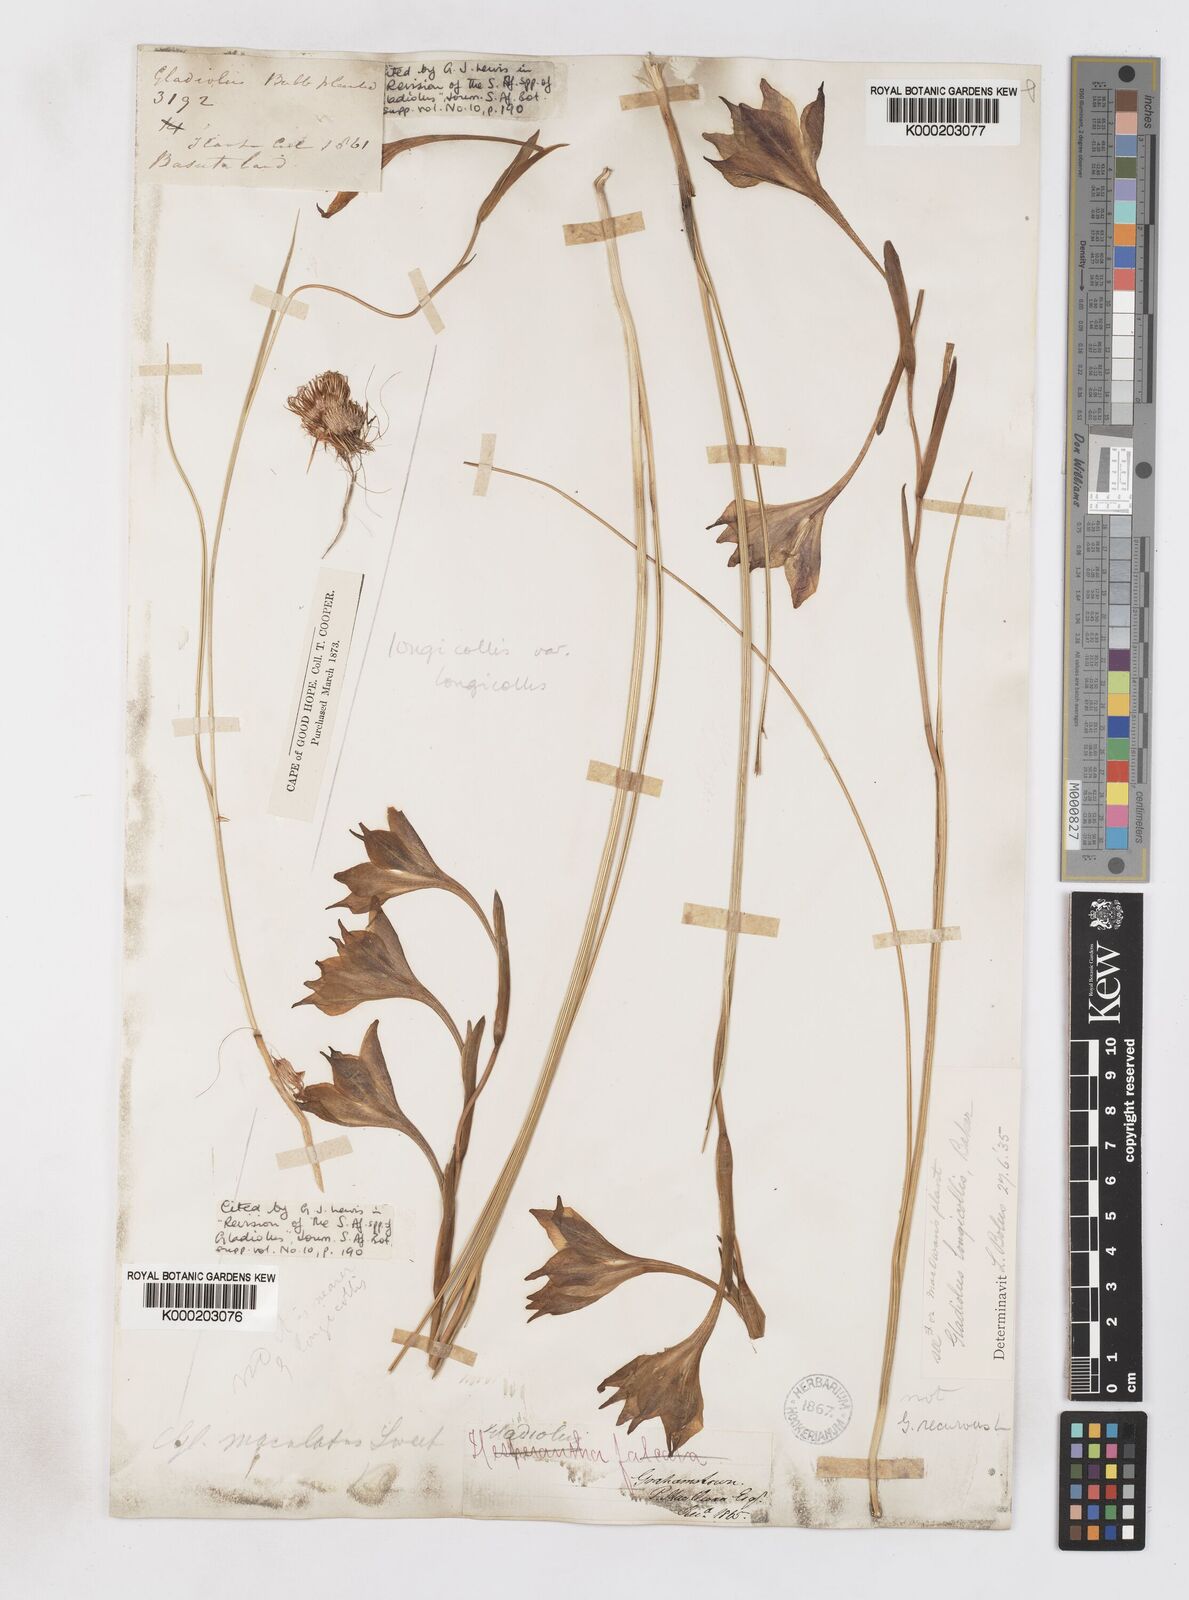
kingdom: Plantae
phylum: Tracheophyta
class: Liliopsida
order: Asparagales
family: Iridaceae
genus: Gladiolus
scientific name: Gladiolus longicollis
